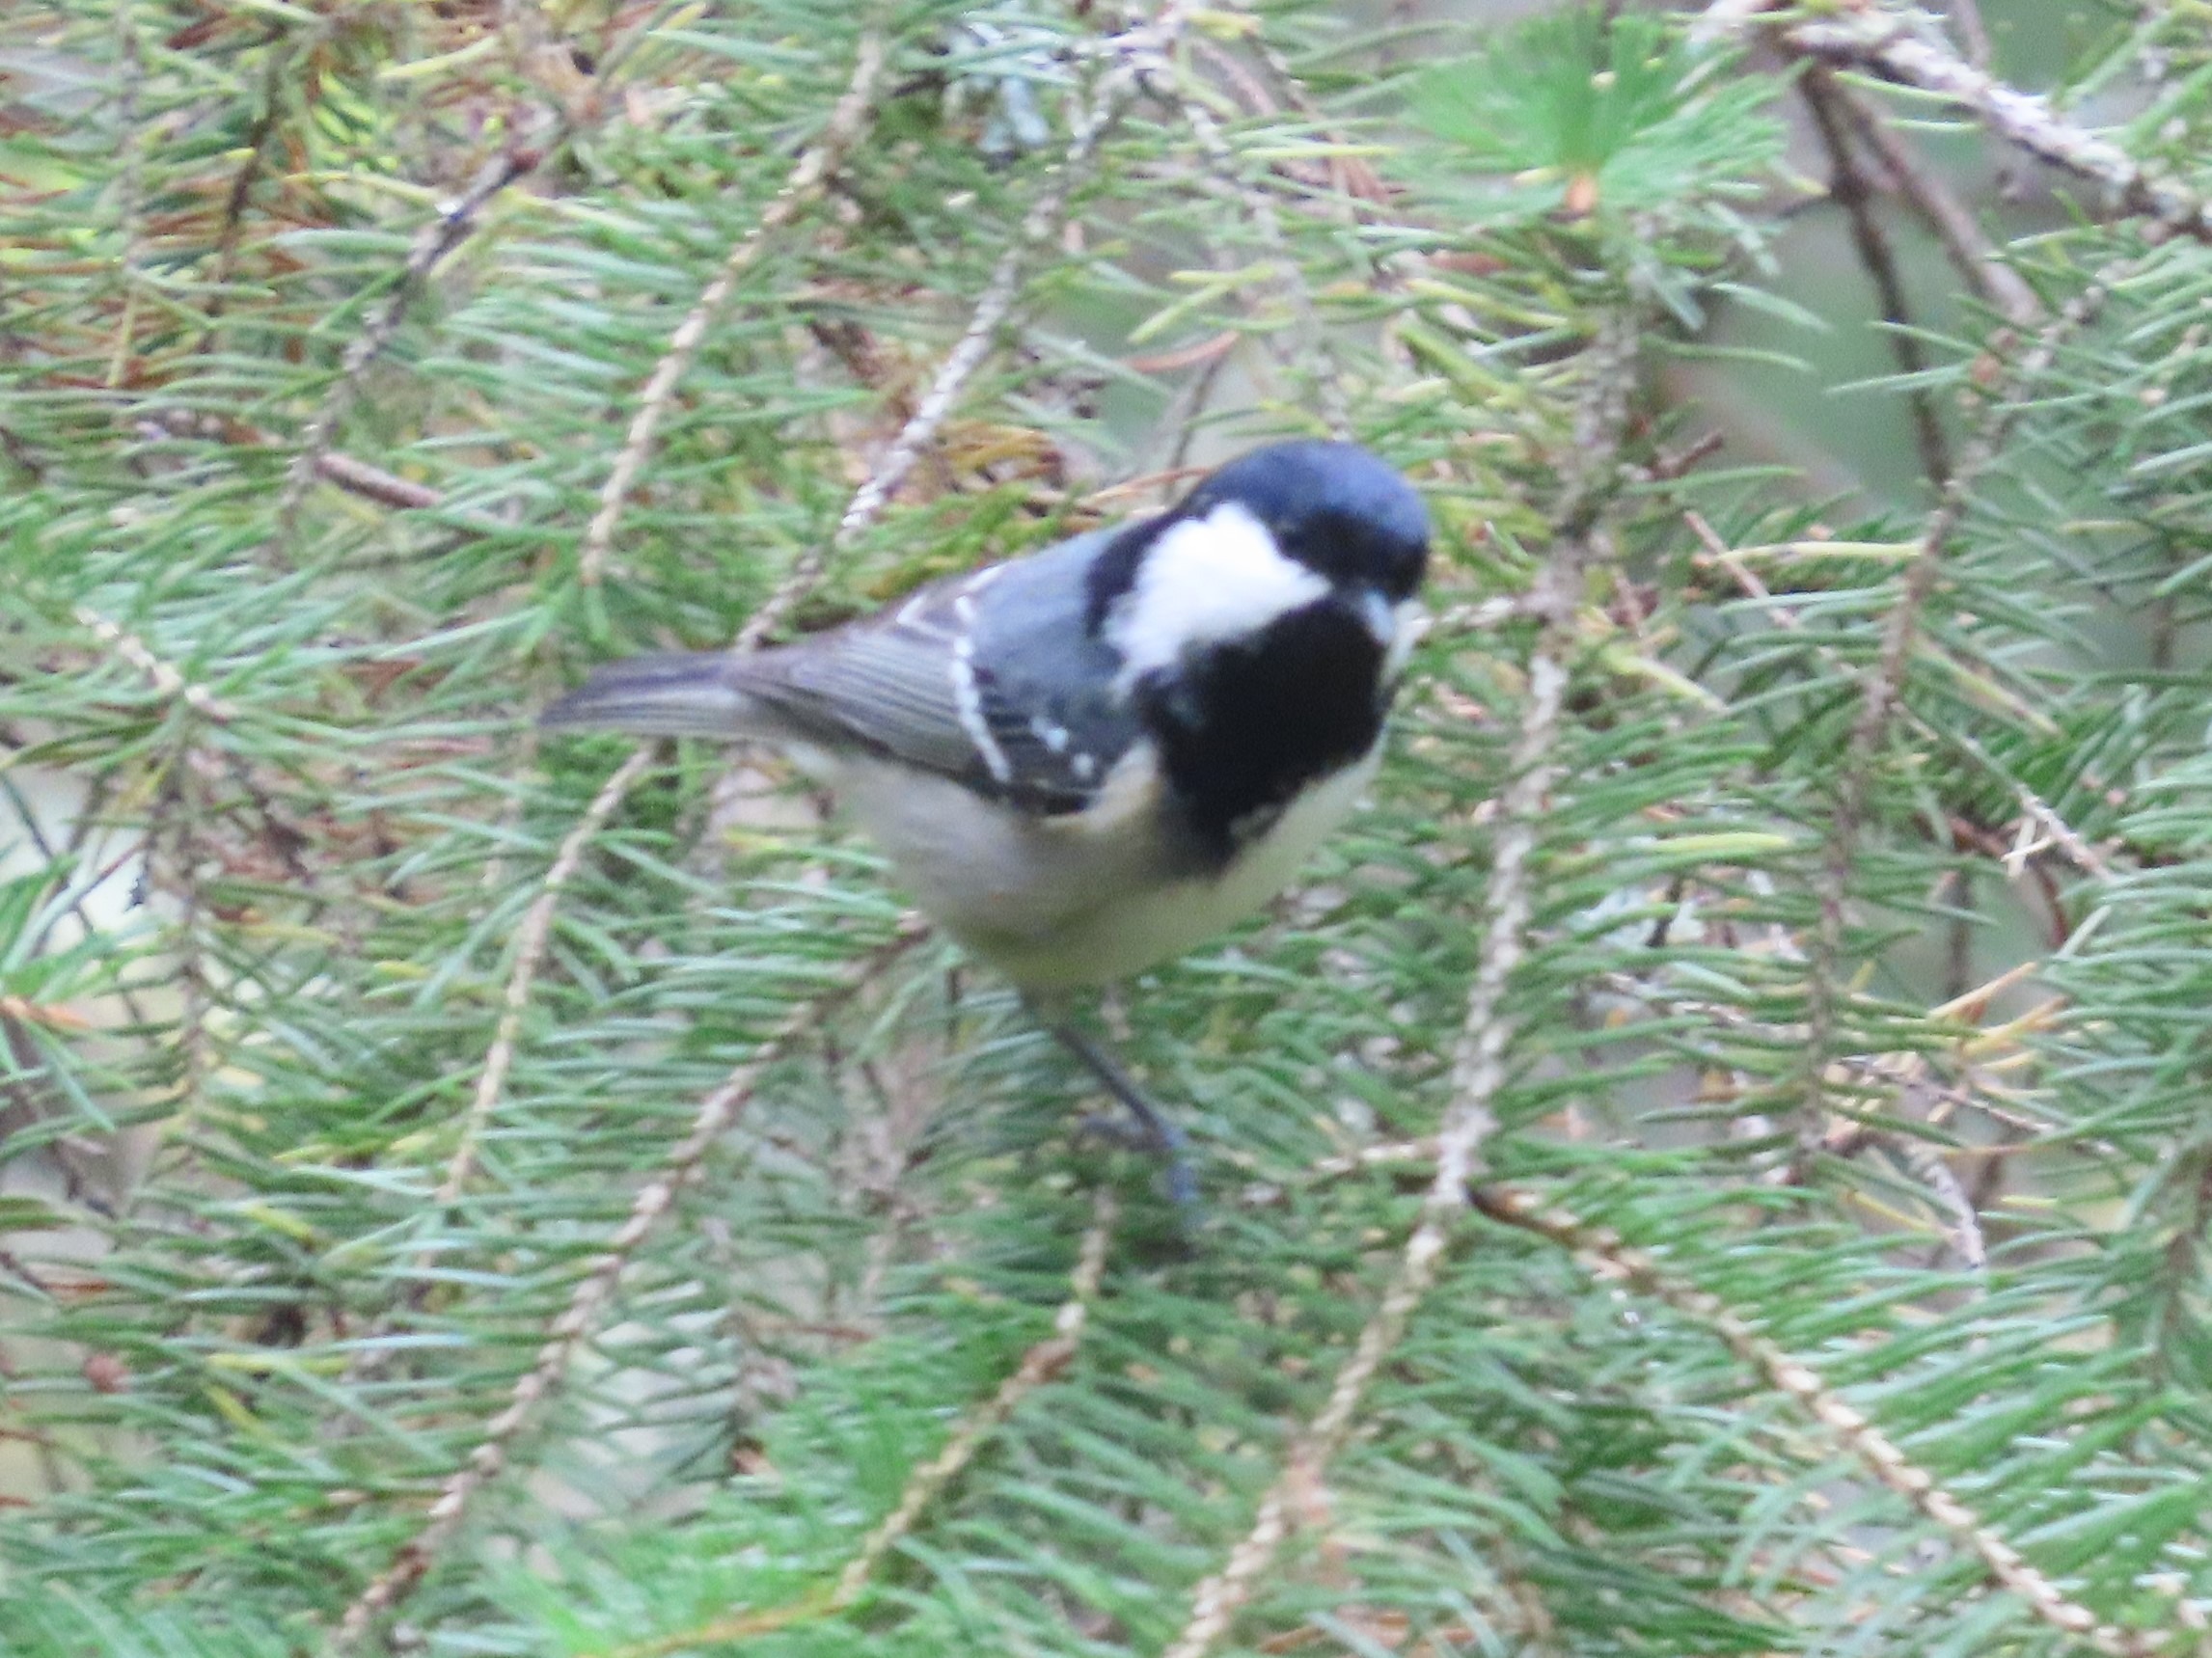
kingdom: Animalia
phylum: Chordata
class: Aves
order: Passeriformes
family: Paridae
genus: Periparus
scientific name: Periparus ater
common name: Sortmejse
